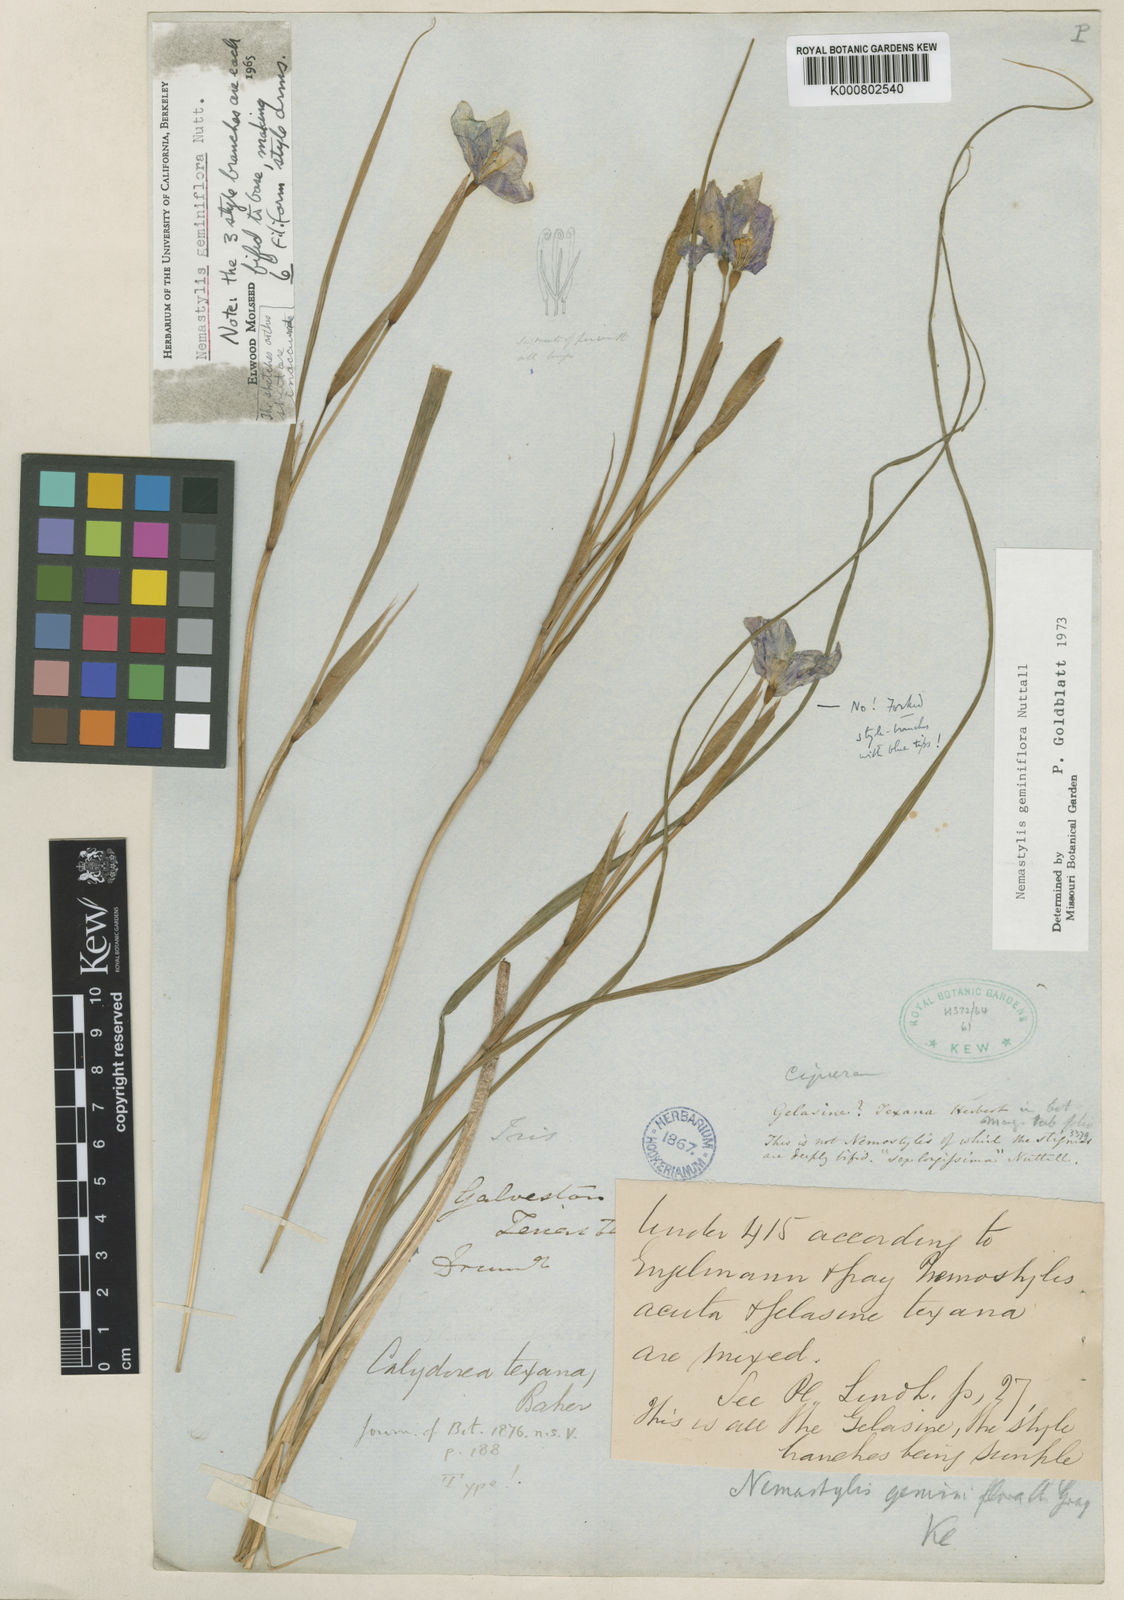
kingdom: Plantae
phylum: Tracheophyta
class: Liliopsida
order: Asparagales
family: Iridaceae
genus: Nemastylis
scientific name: Nemastylis geminiflora
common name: Prairie celestial
